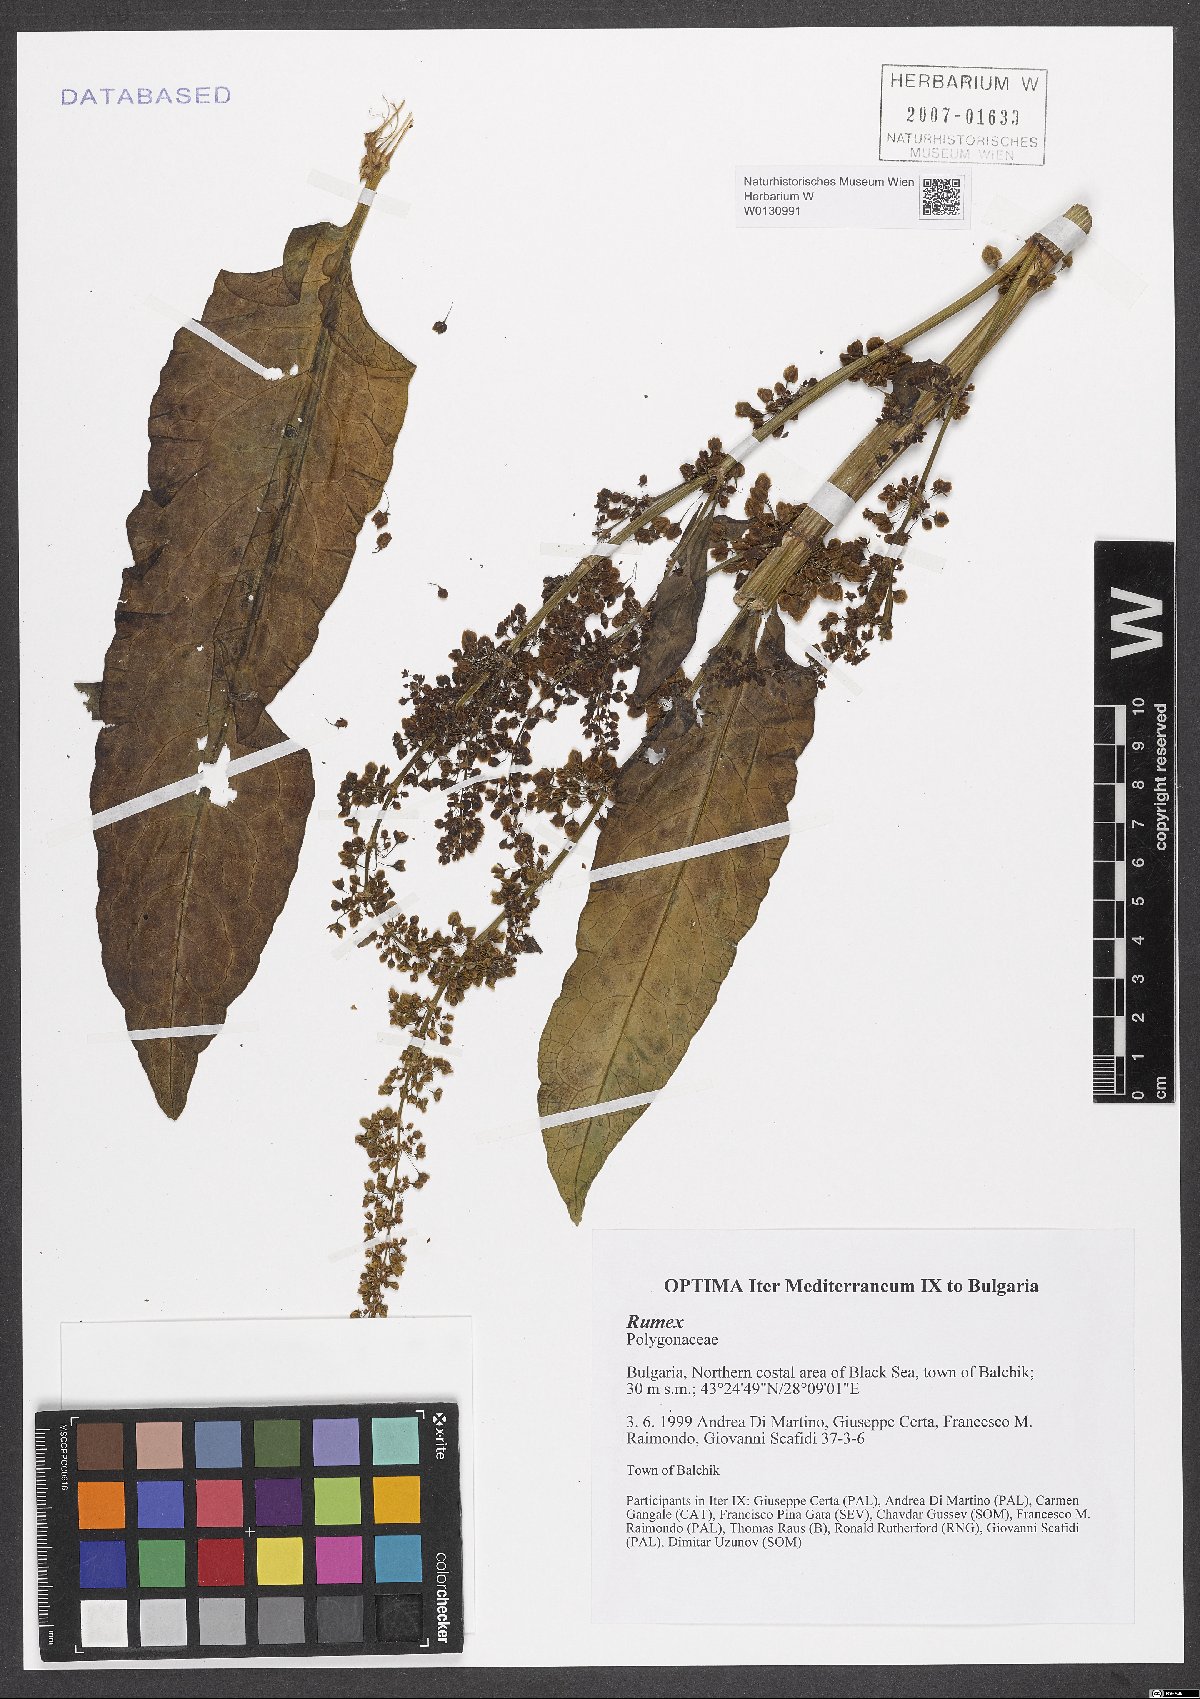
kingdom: Plantae
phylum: Tracheophyta
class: Magnoliopsida
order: Caryophyllales
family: Polygonaceae
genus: Rumex
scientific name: Rumex
